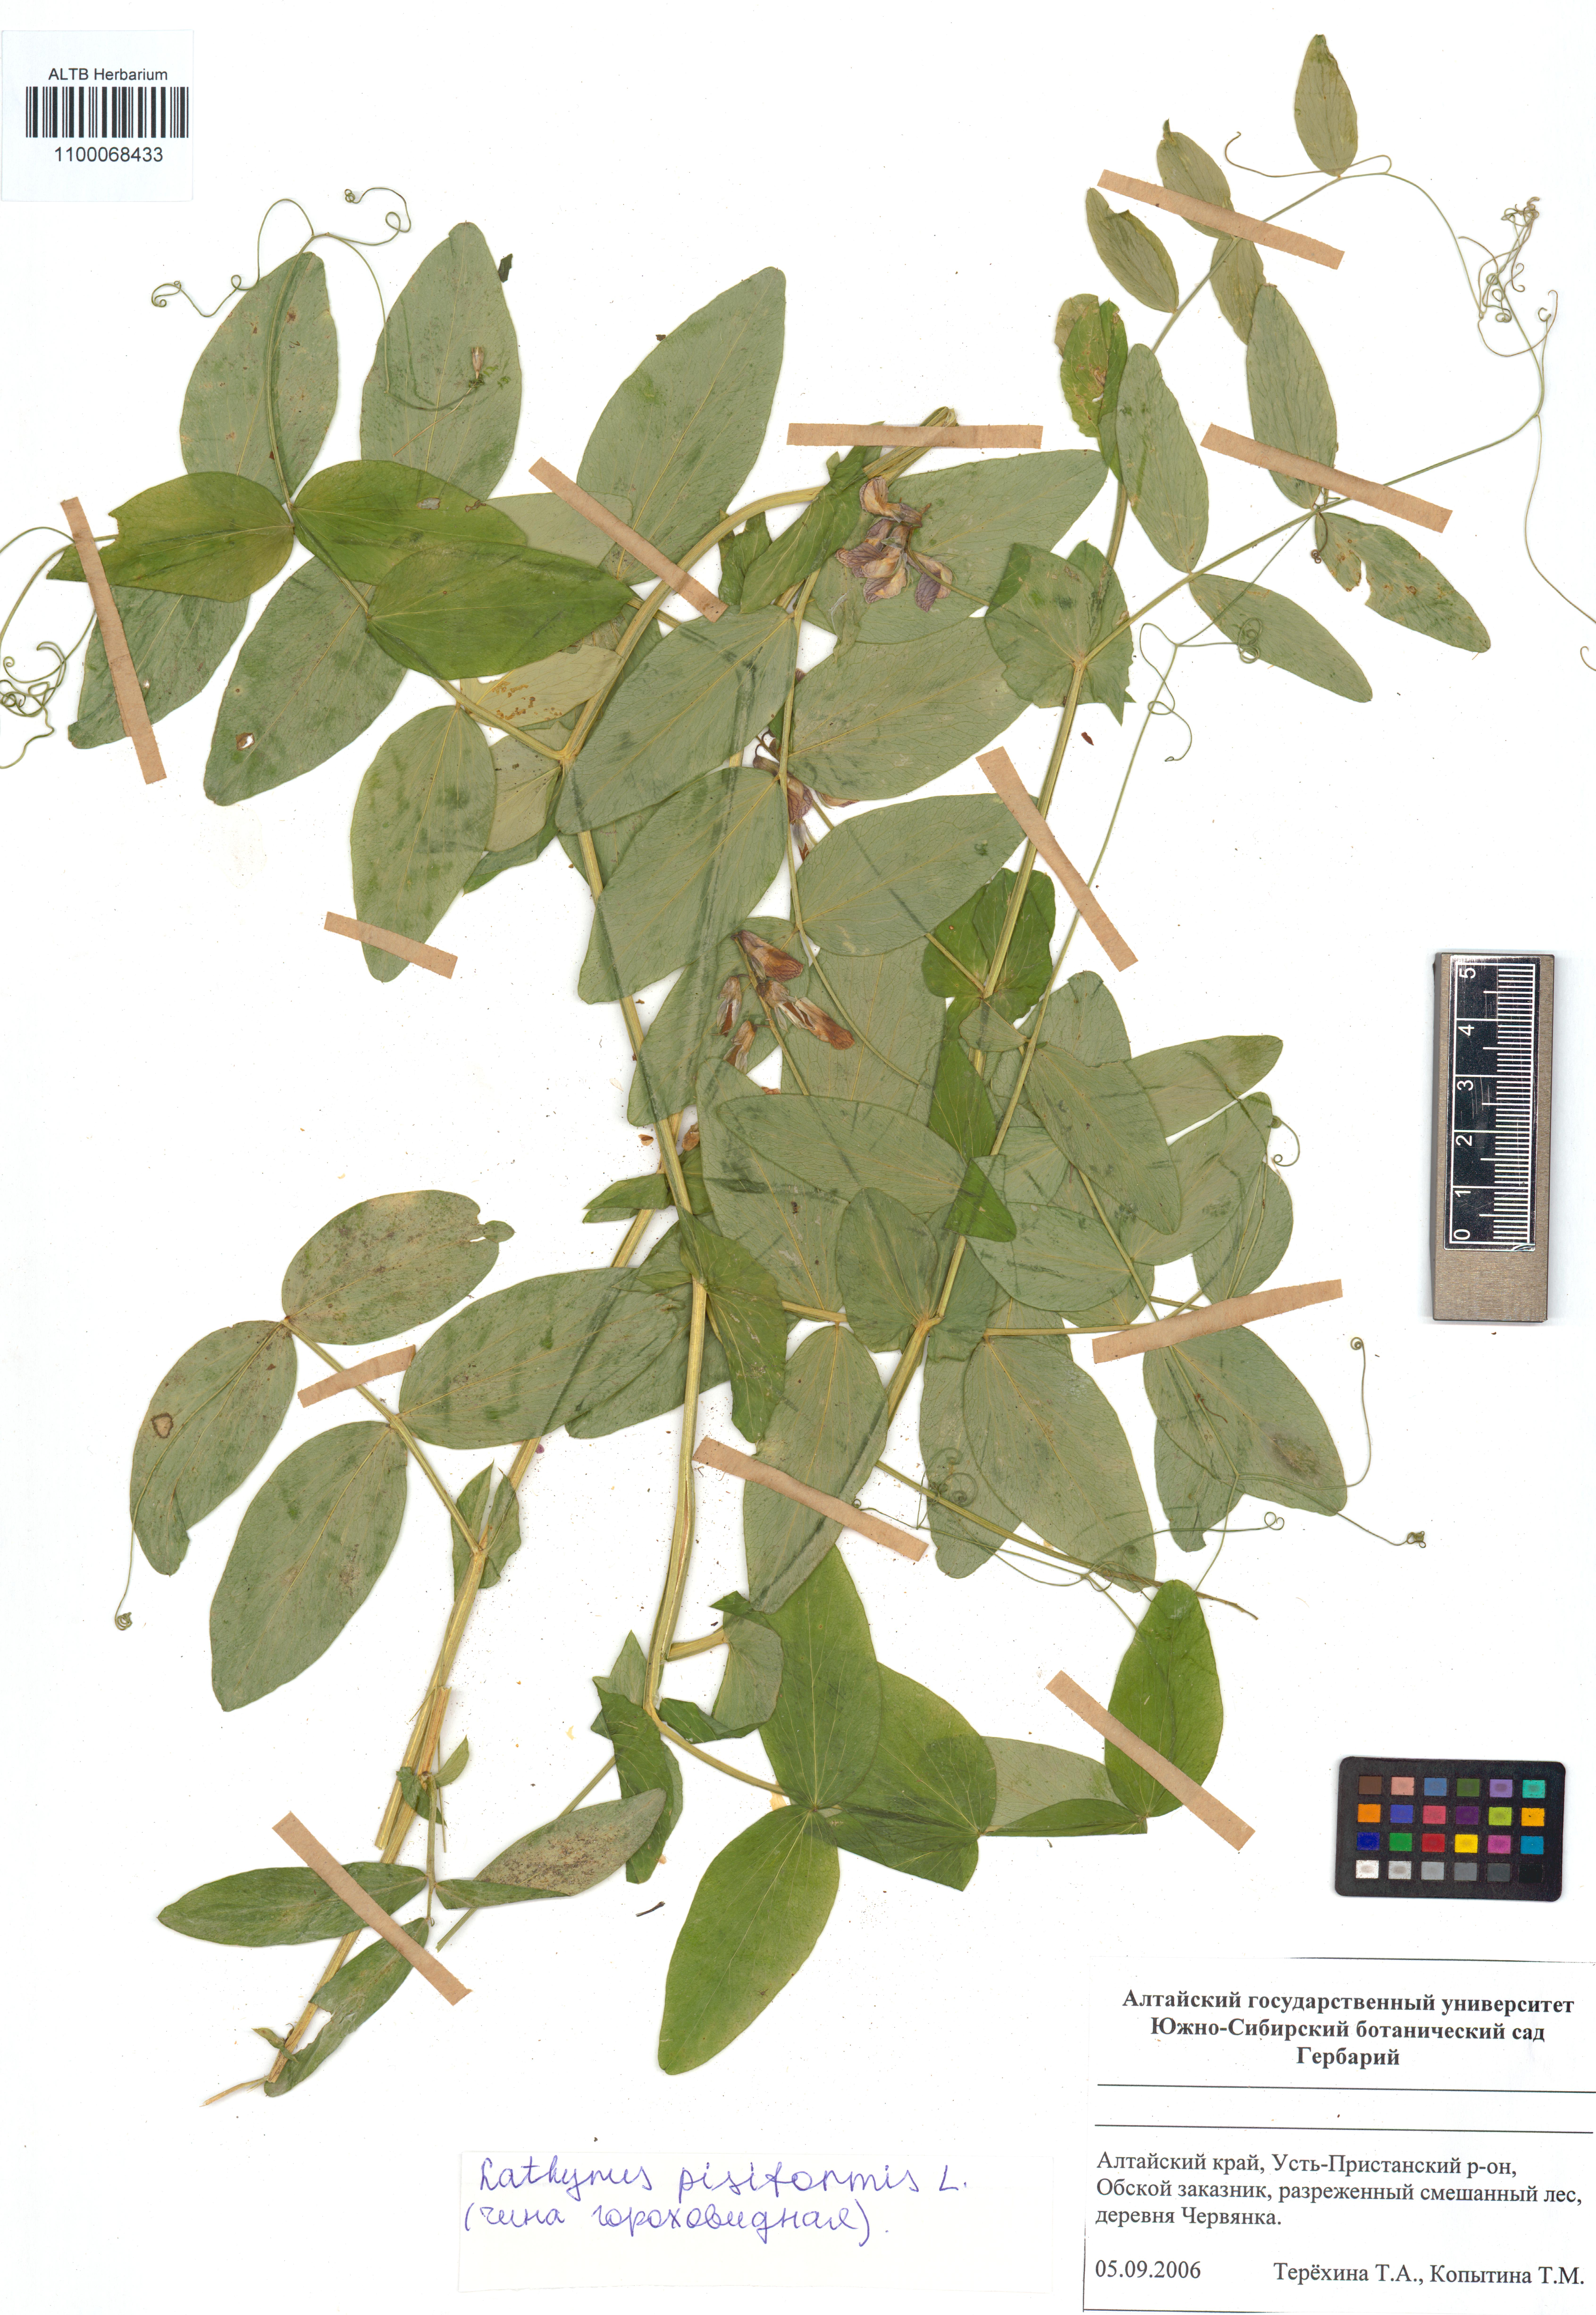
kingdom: Plantae
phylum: Tracheophyta
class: Magnoliopsida
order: Fabales
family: Fabaceae
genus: Lathyrus
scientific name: Lathyrus pisiformis
